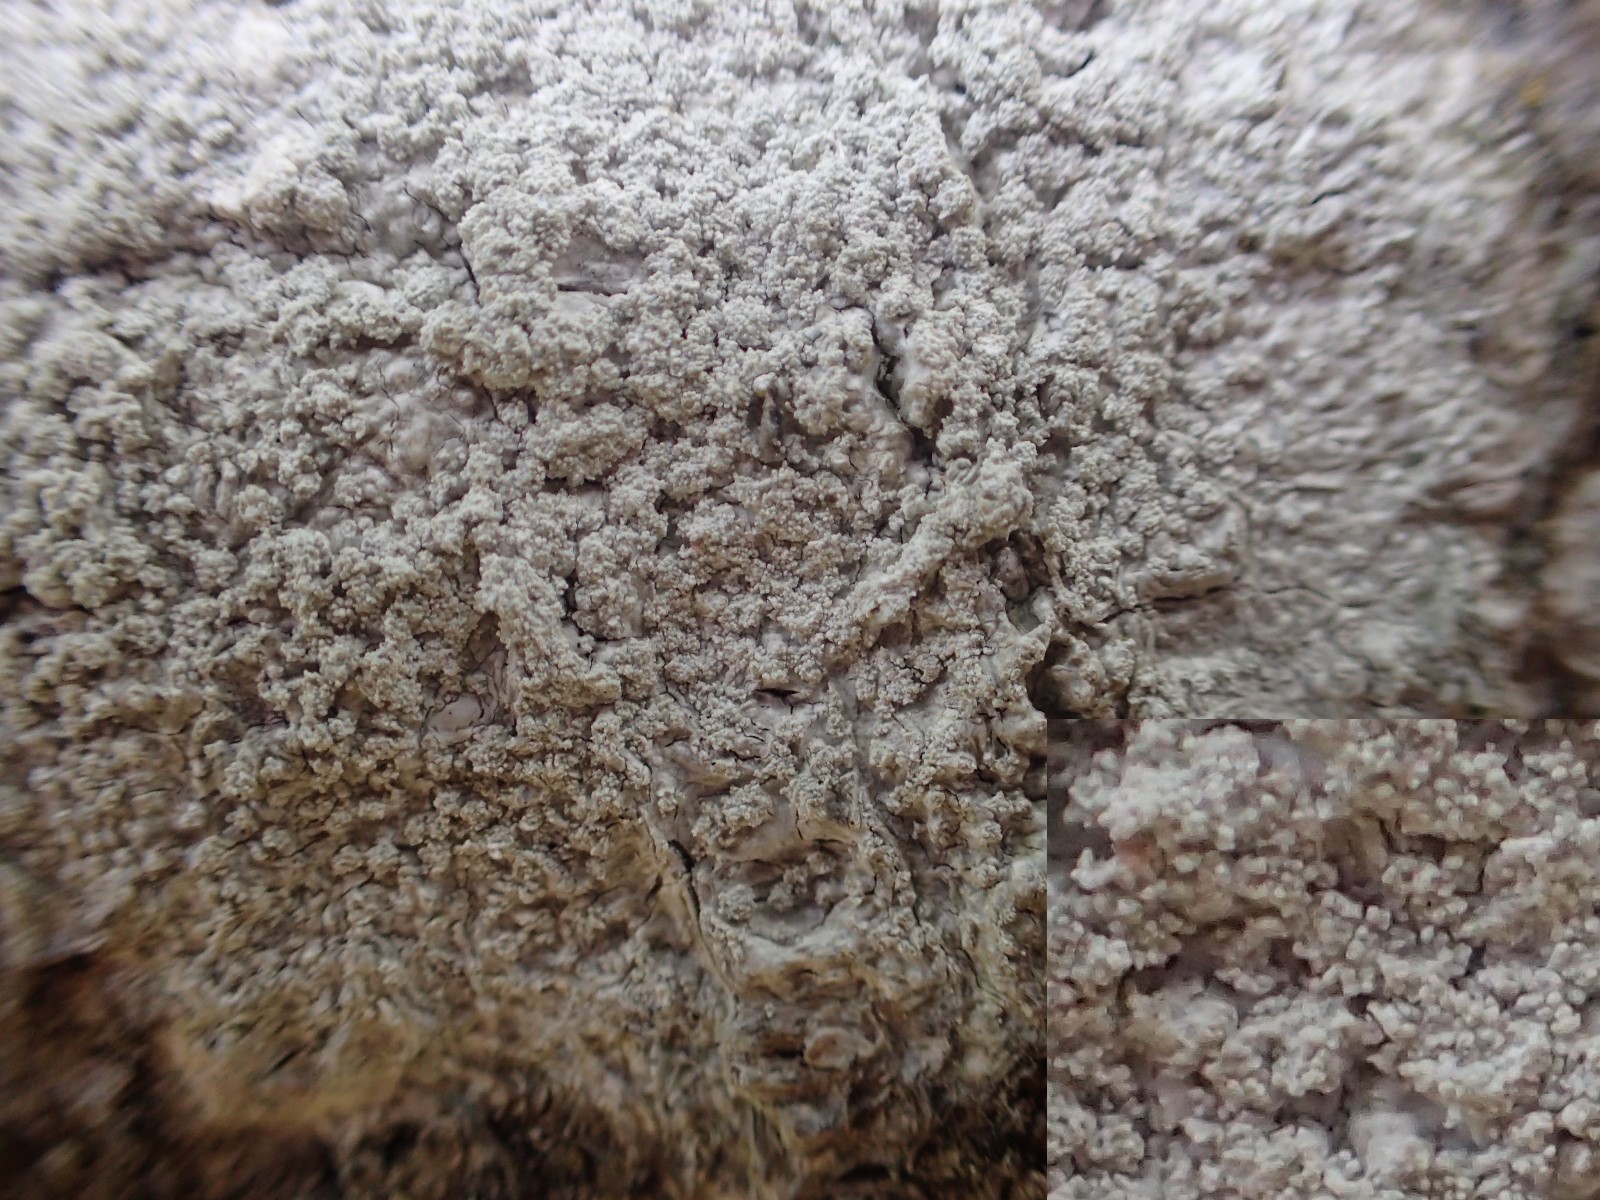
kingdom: Fungi
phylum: Ascomycota
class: Lecanoromycetes
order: Pertusariales
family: Pertusariaceae
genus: Lepra
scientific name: Lepra amara
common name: bitter prikvortelav
